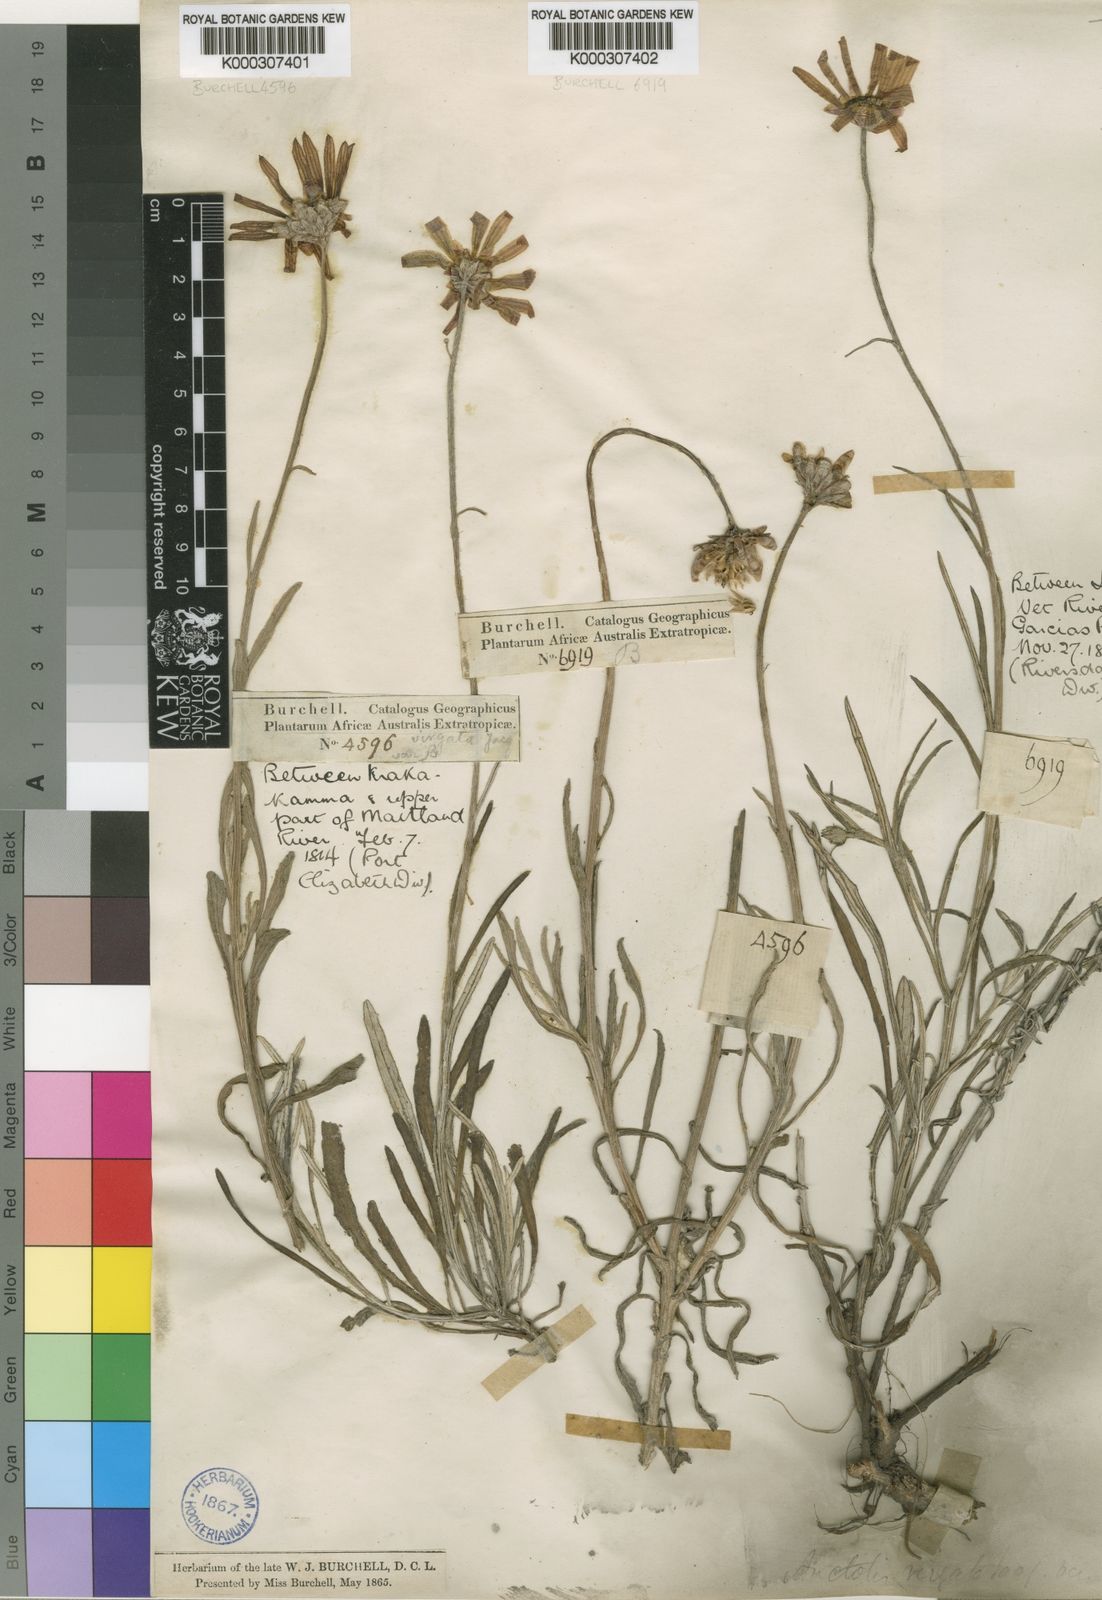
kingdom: Plantae
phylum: Tracheophyta
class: Magnoliopsida
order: Asterales
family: Asteraceae
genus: Arctotis
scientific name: Arctotis virgata
